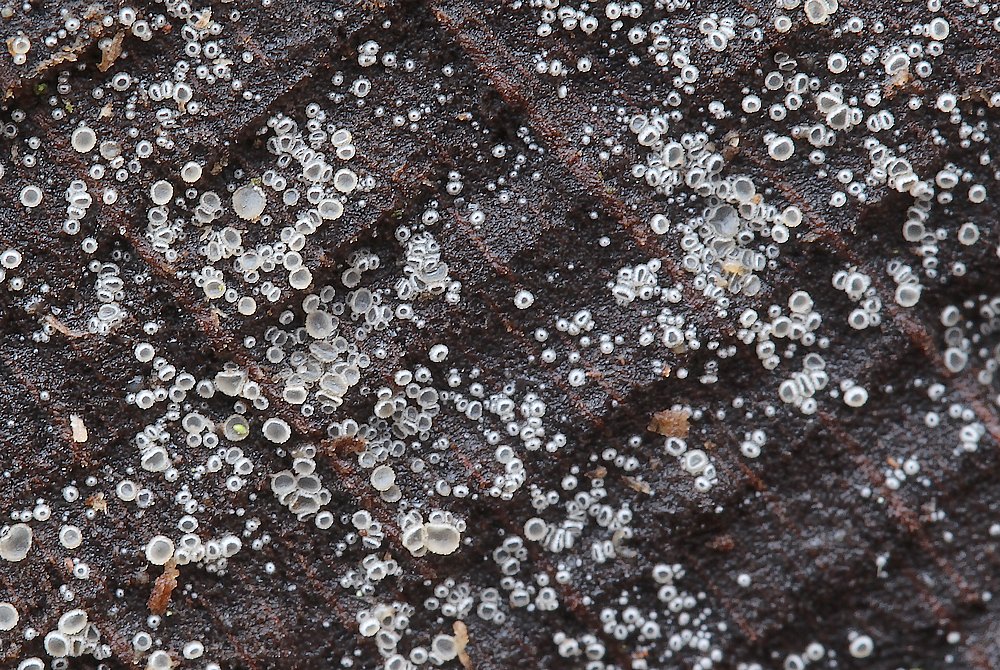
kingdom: Fungi
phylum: Ascomycota
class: Leotiomycetes
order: Helotiales
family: Hyaloscyphaceae
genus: Protounguicularia
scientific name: Protounguicularia transiens
